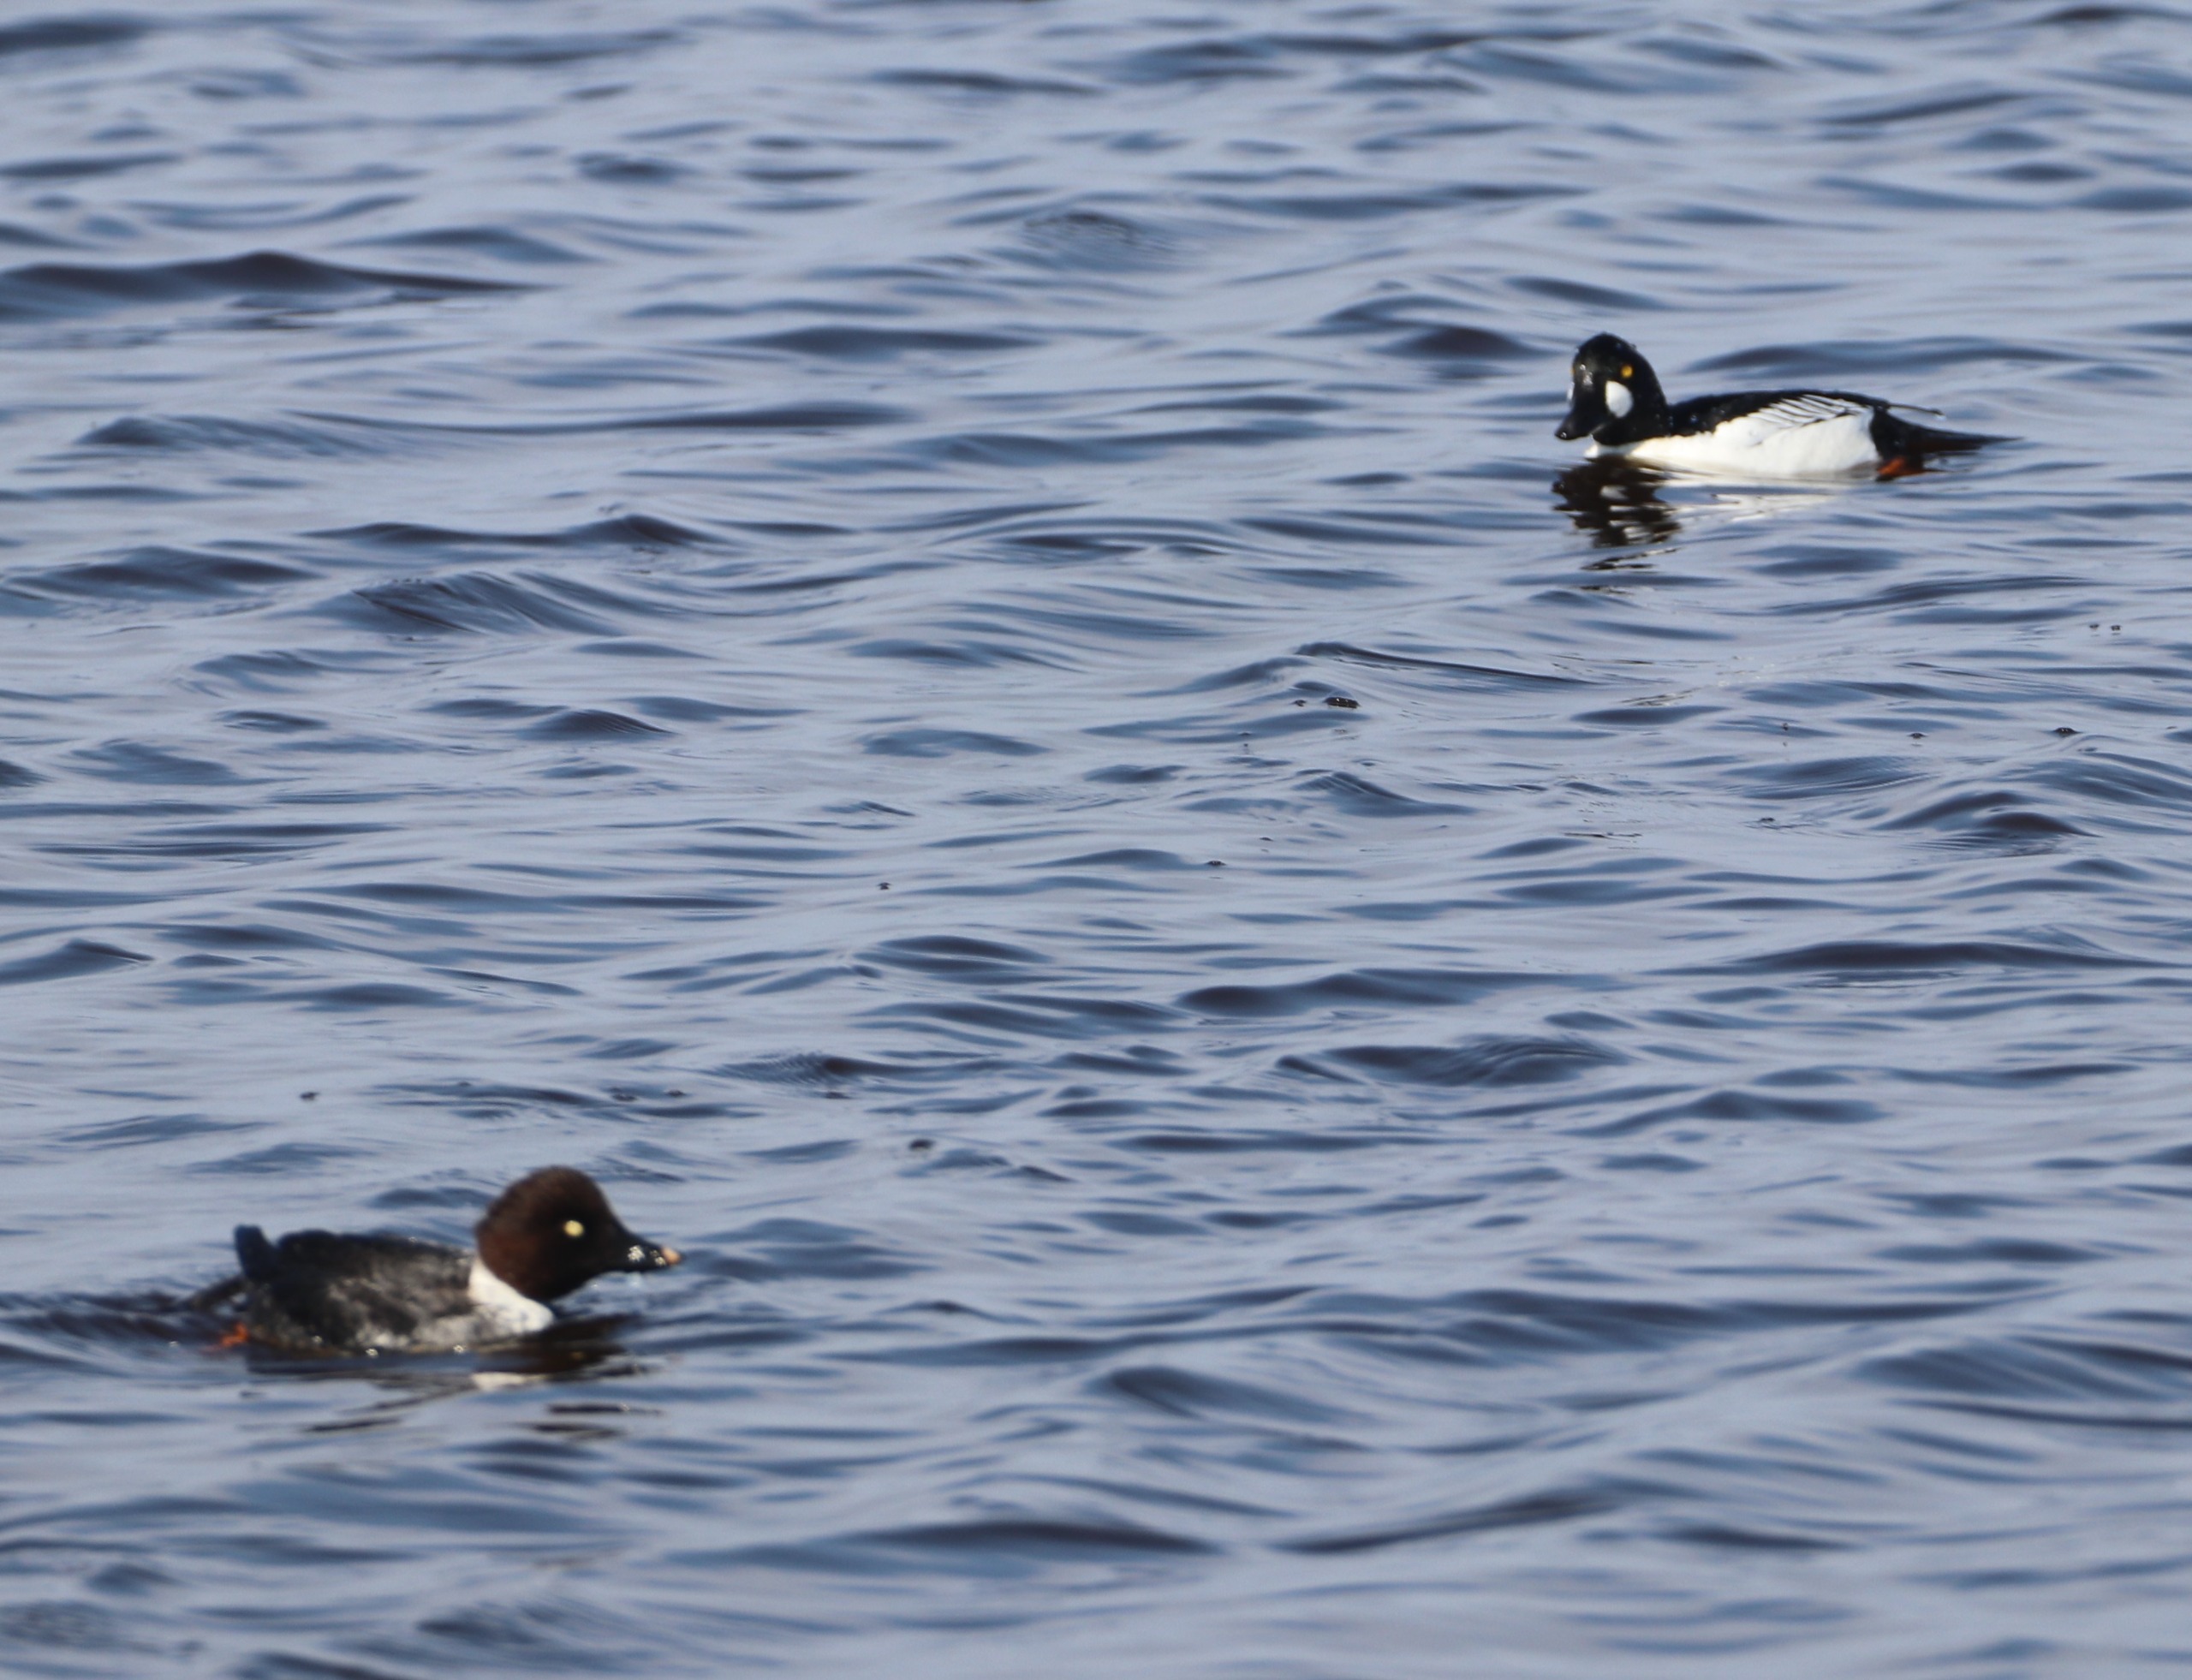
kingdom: Animalia
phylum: Chordata
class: Aves
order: Anseriformes
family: Anatidae
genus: Bucephala
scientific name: Bucephala clangula
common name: Hvinand
